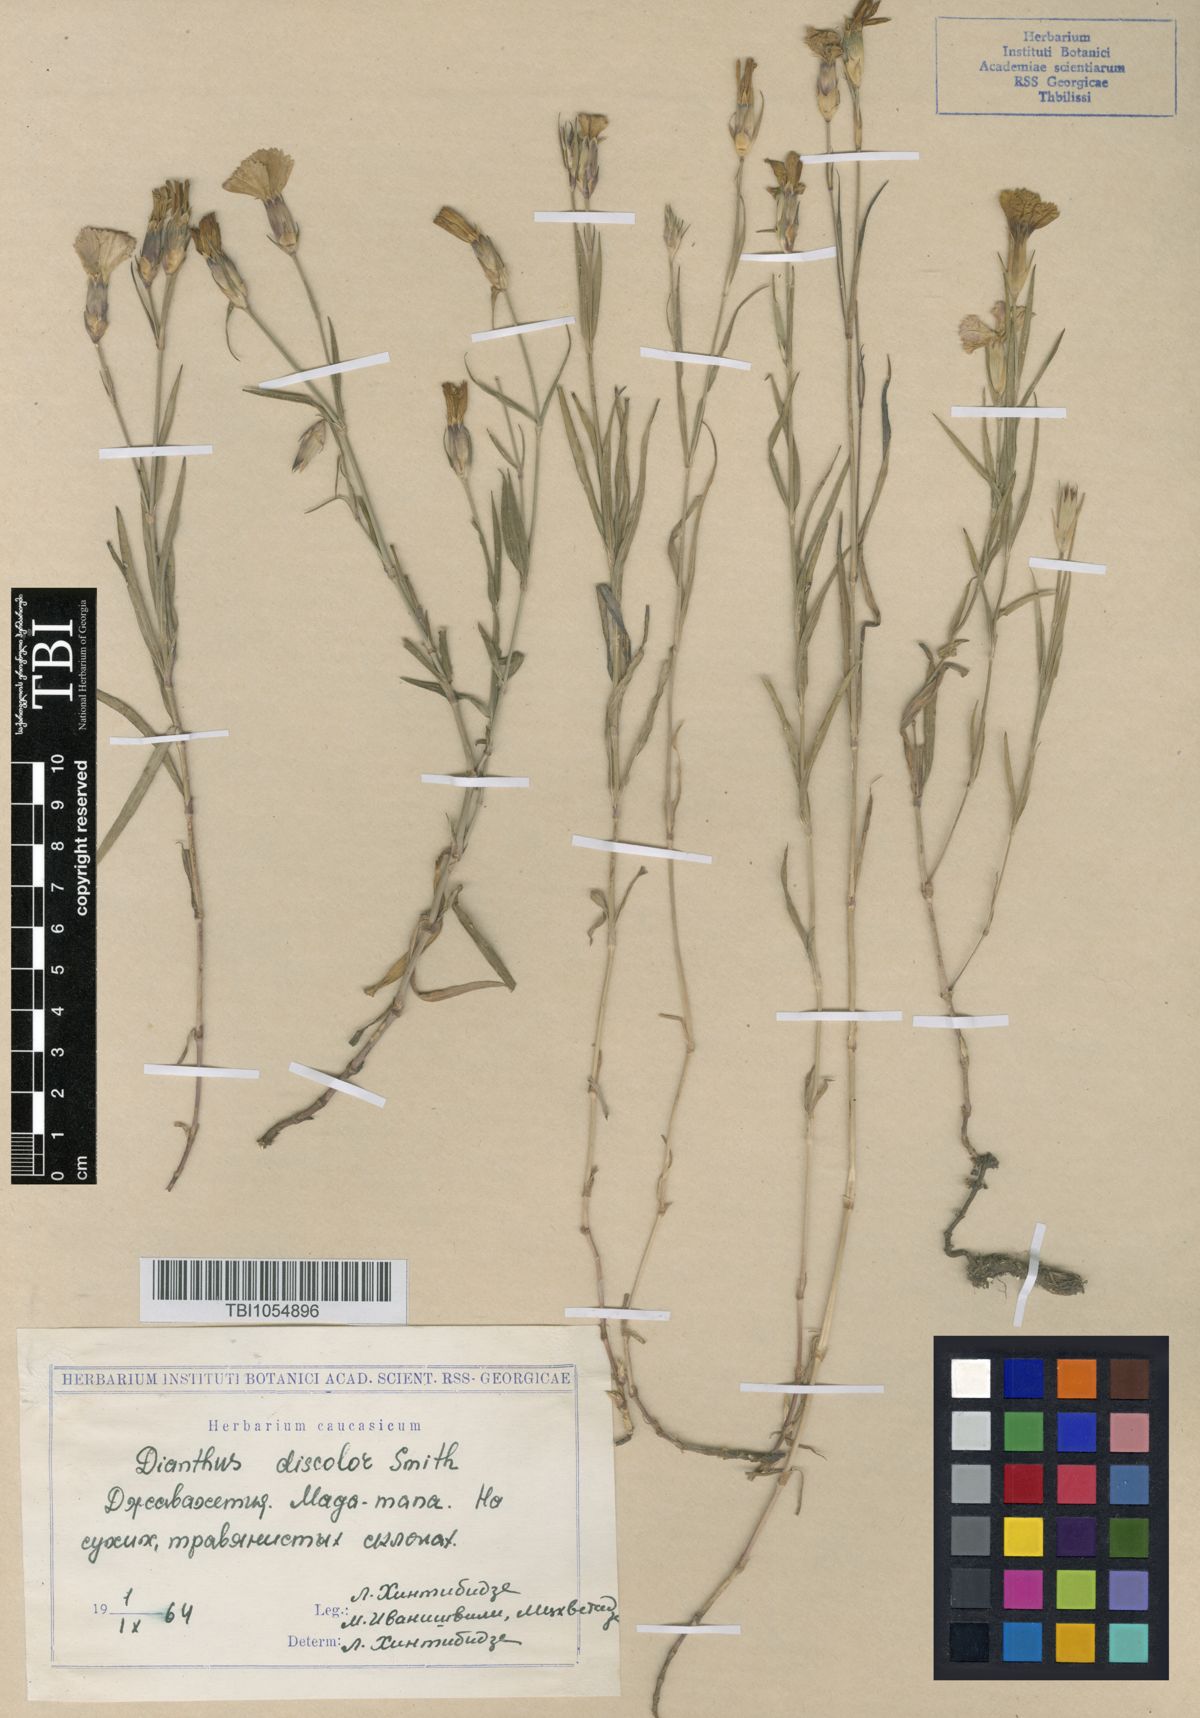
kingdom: Plantae
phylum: Tracheophyta
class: Magnoliopsida
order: Caryophyllales
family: Caryophyllaceae
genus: Dianthus
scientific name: Dianthus caucaseus
